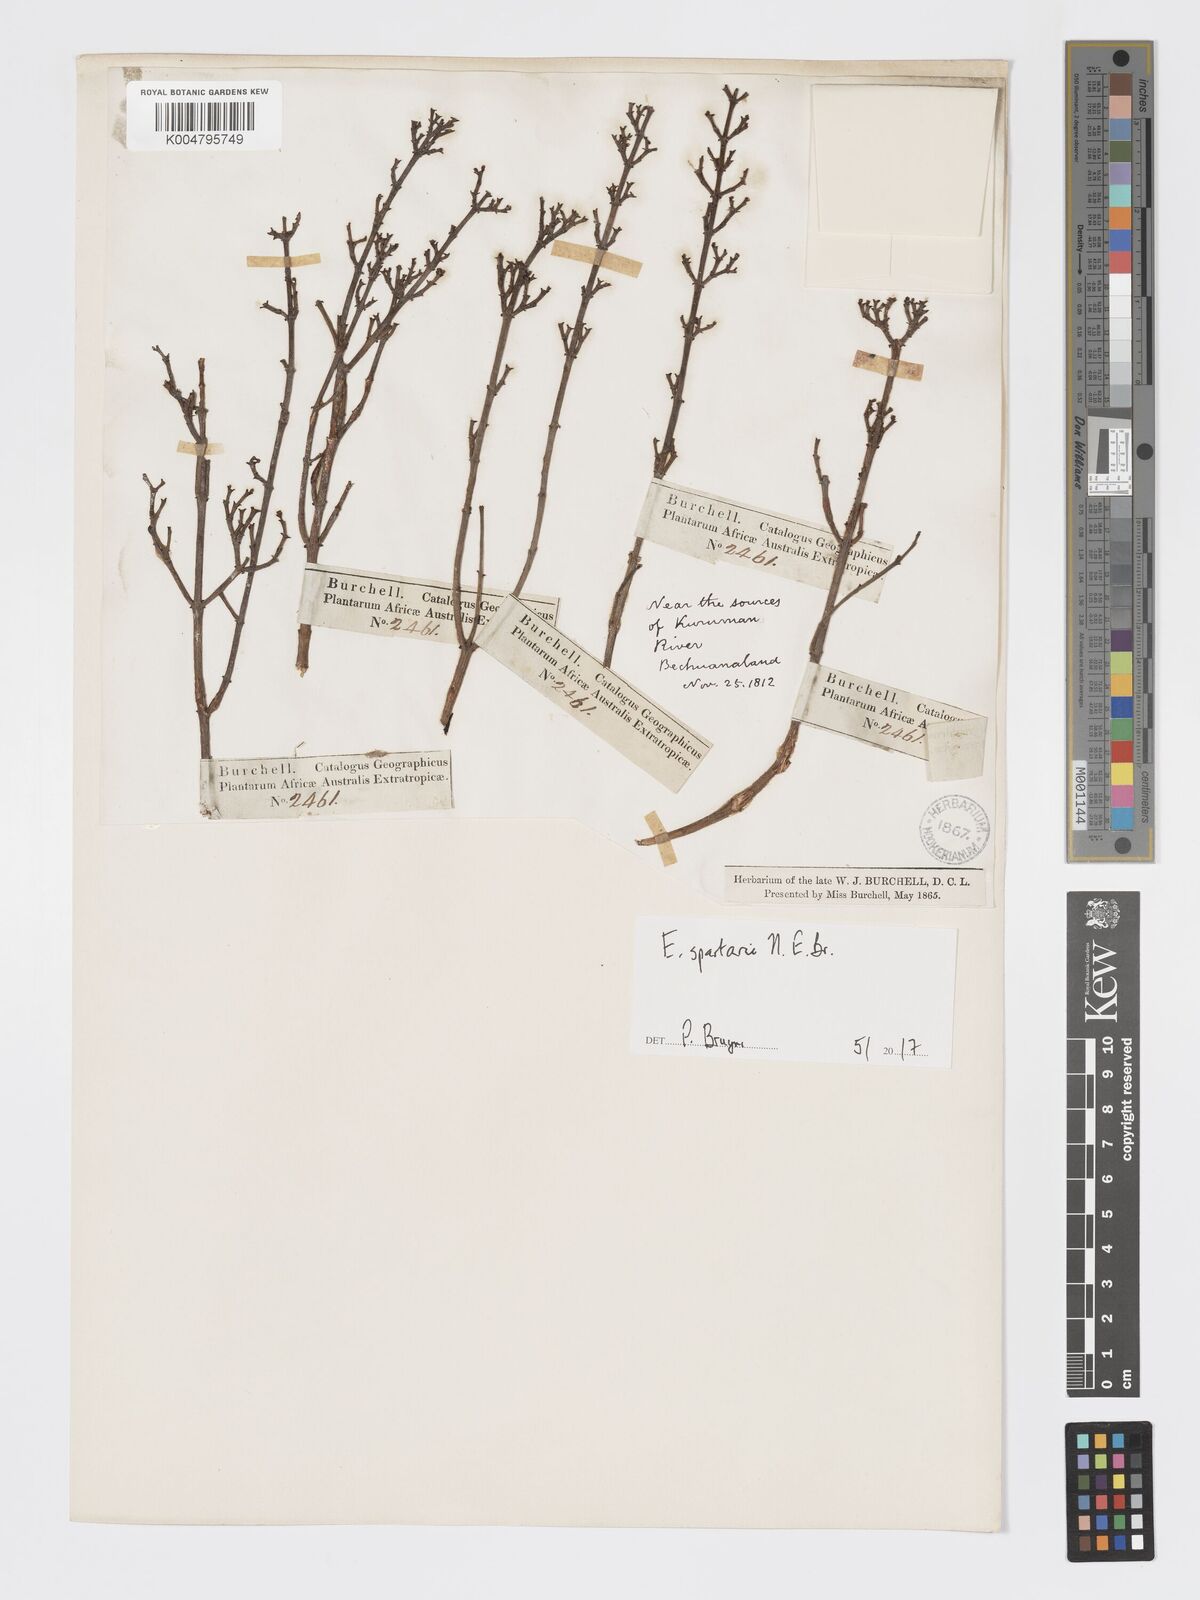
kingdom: Plantae
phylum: Tracheophyta
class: Magnoliopsida
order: Malpighiales
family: Euphorbiaceae
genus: Euphorbia
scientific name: Euphorbia spartaria
